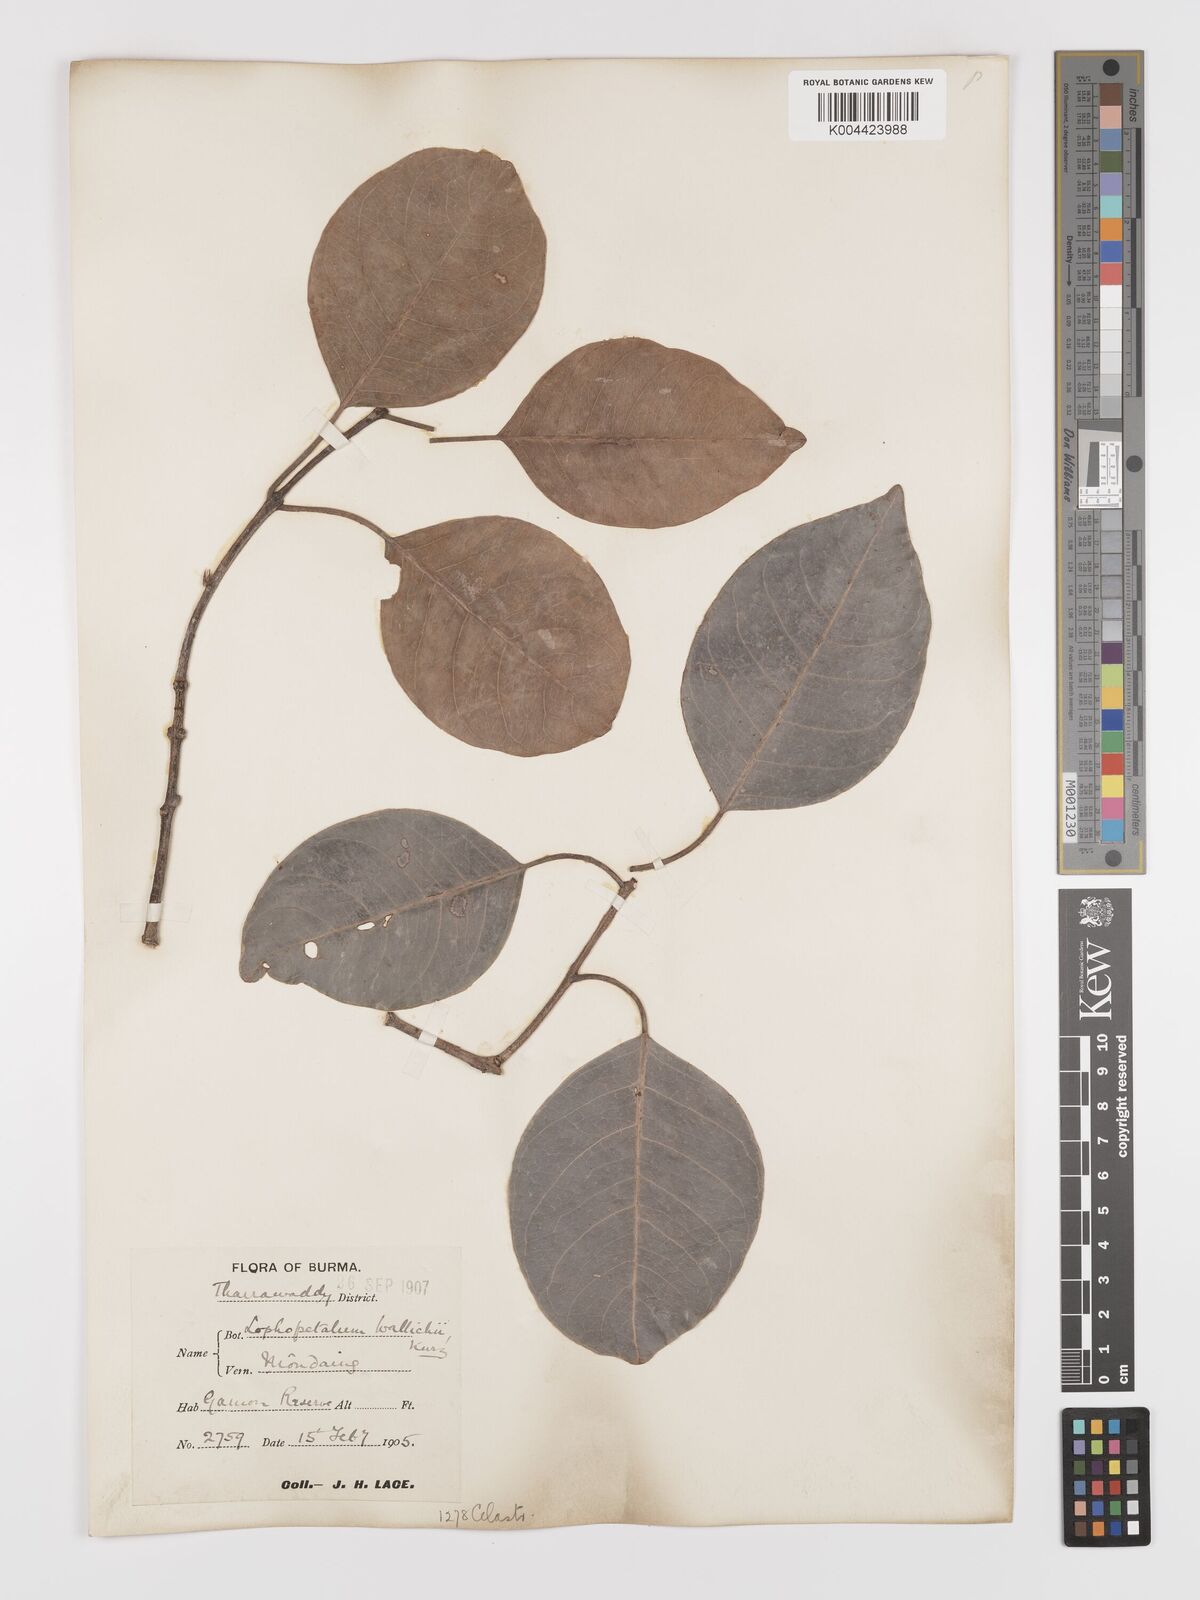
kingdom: Plantae
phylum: Tracheophyta
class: Magnoliopsida
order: Celastrales
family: Celastraceae
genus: Lophopetalum
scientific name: Lophopetalum wallichii
